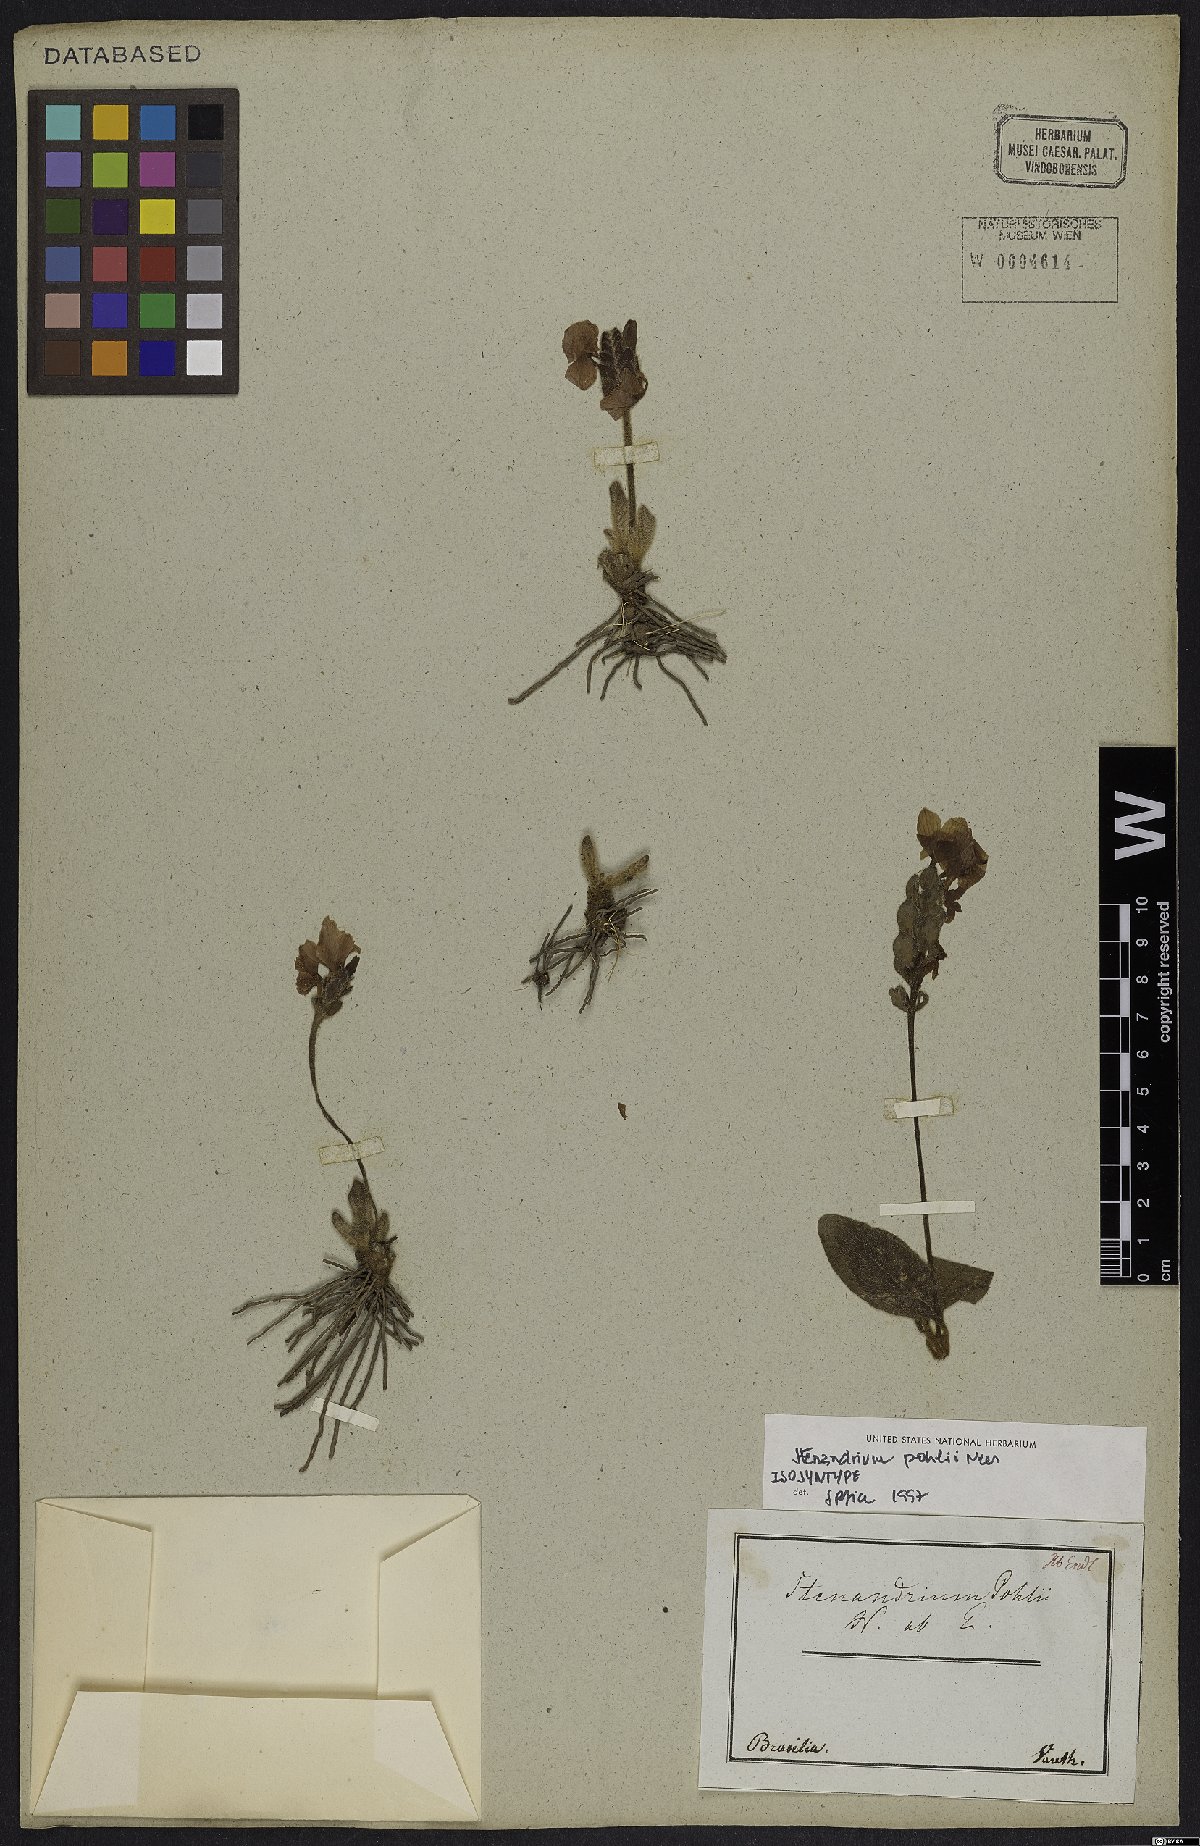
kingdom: Plantae
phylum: Tracheophyta
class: Magnoliopsida
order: Lamiales
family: Acanthaceae
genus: Stenandrium
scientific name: Stenandrium pohlii
